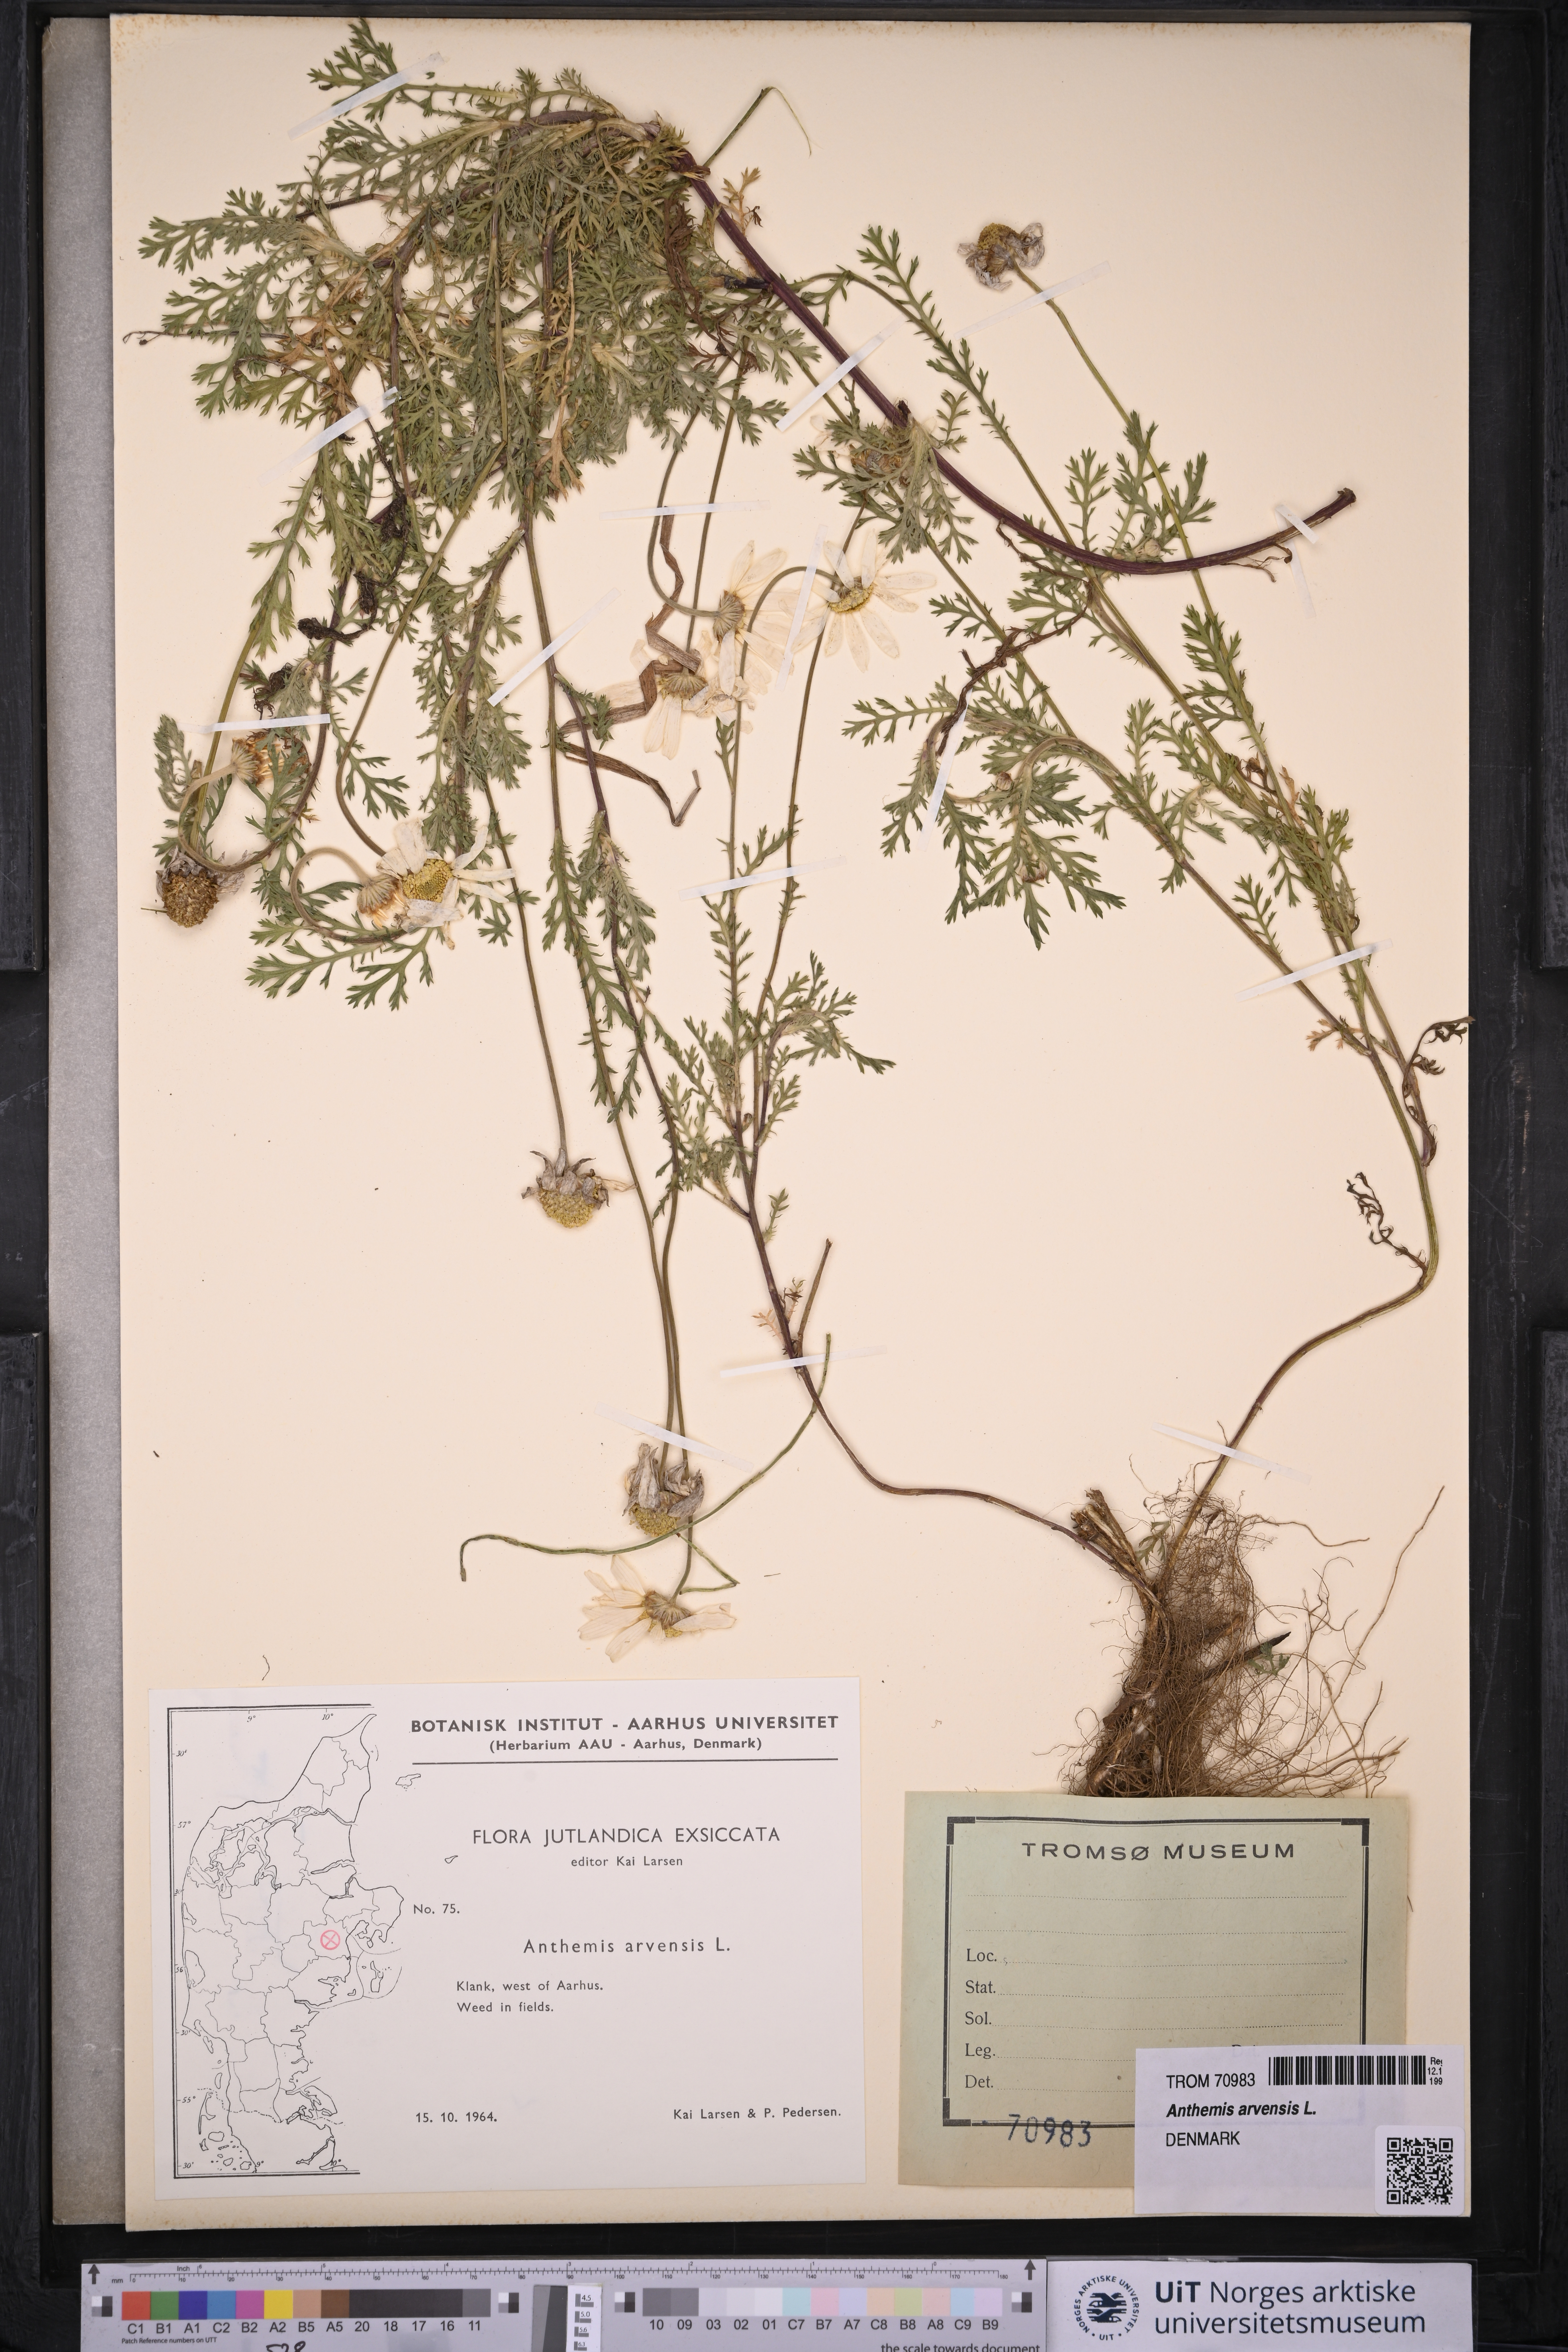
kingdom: Plantae
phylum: Tracheophyta
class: Magnoliopsida
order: Asterales
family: Asteraceae
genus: Anthemis
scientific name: Anthemis arvensis
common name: Corn chamomile
